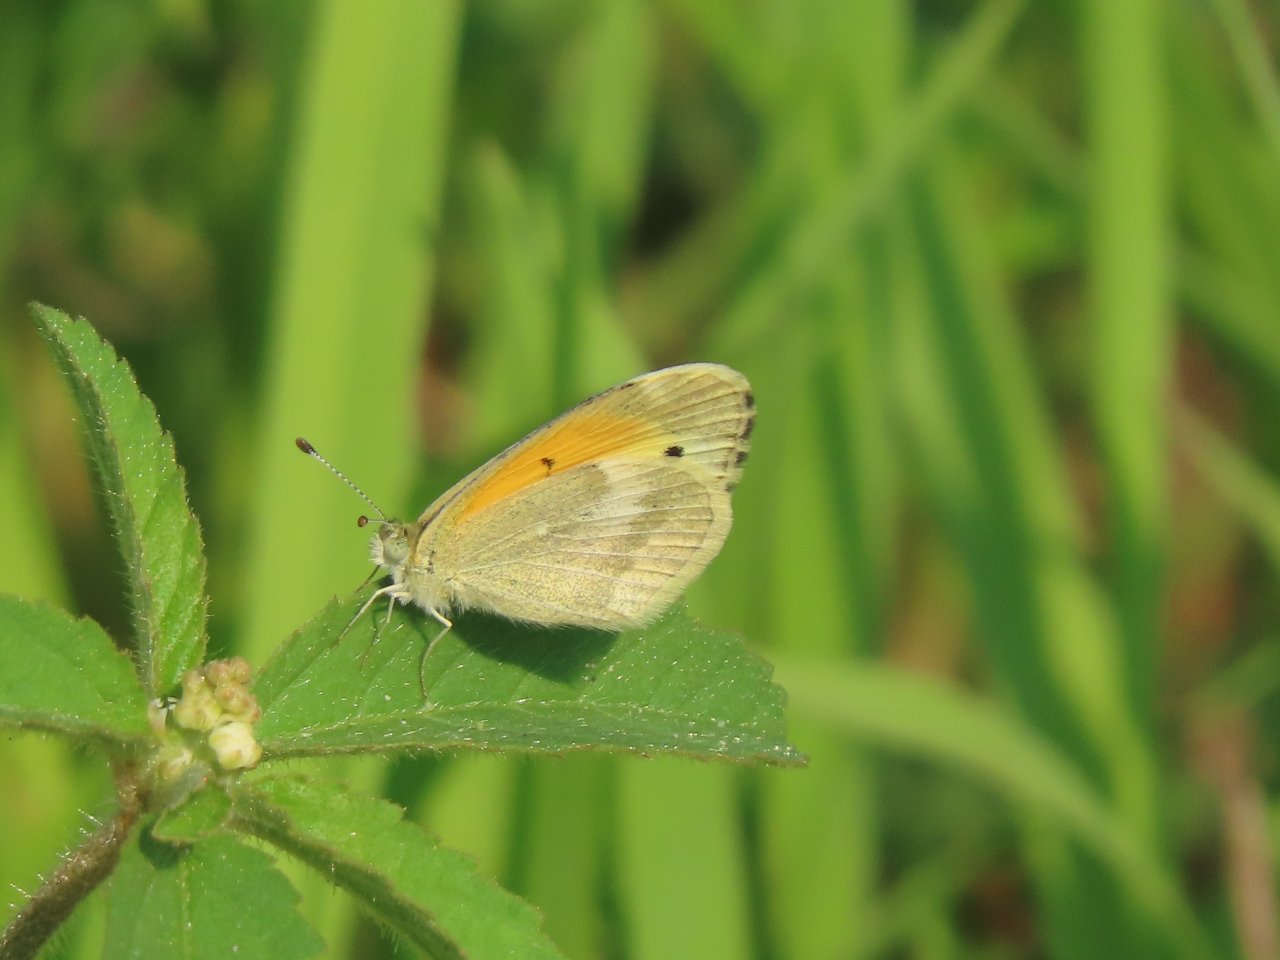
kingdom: Animalia
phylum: Arthropoda
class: Insecta
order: Lepidoptera
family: Pieridae
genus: Nathalis
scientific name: Nathalis iole
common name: Dainty Sulphur
